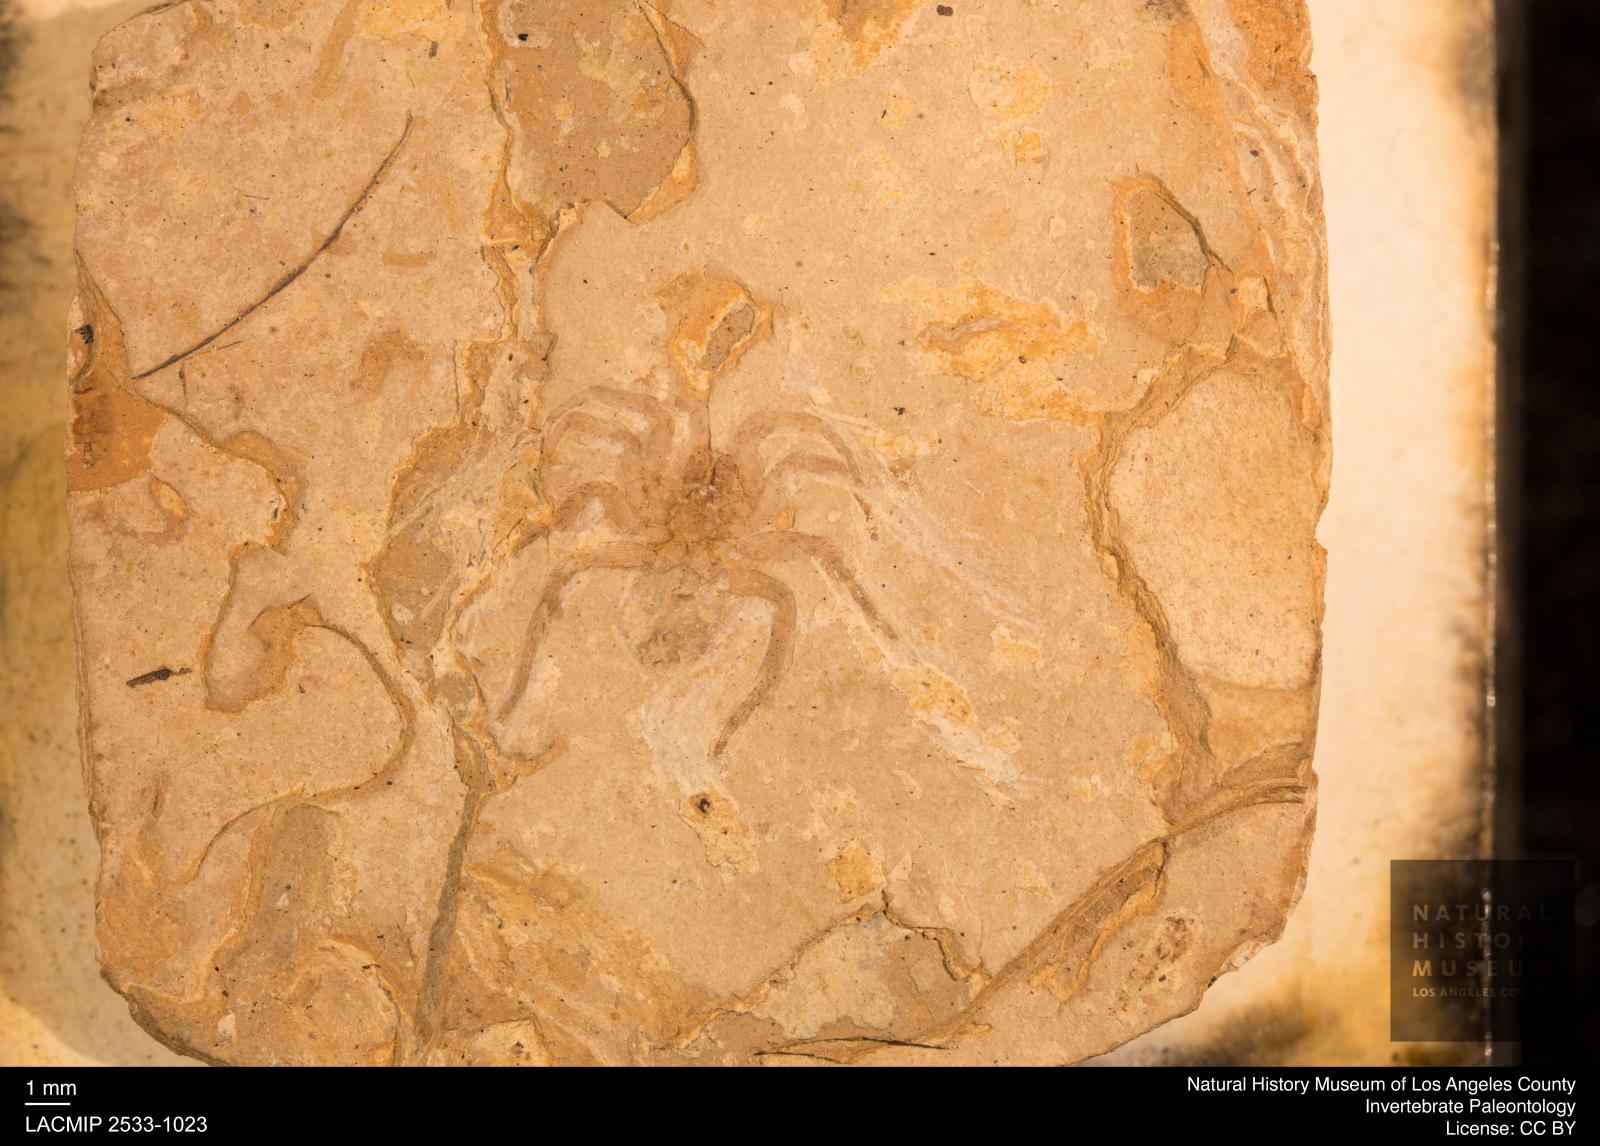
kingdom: Animalia
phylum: Arthropoda
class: Arachnida
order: Araneae
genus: Elvina
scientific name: Elvina Argyroneta antiqua
